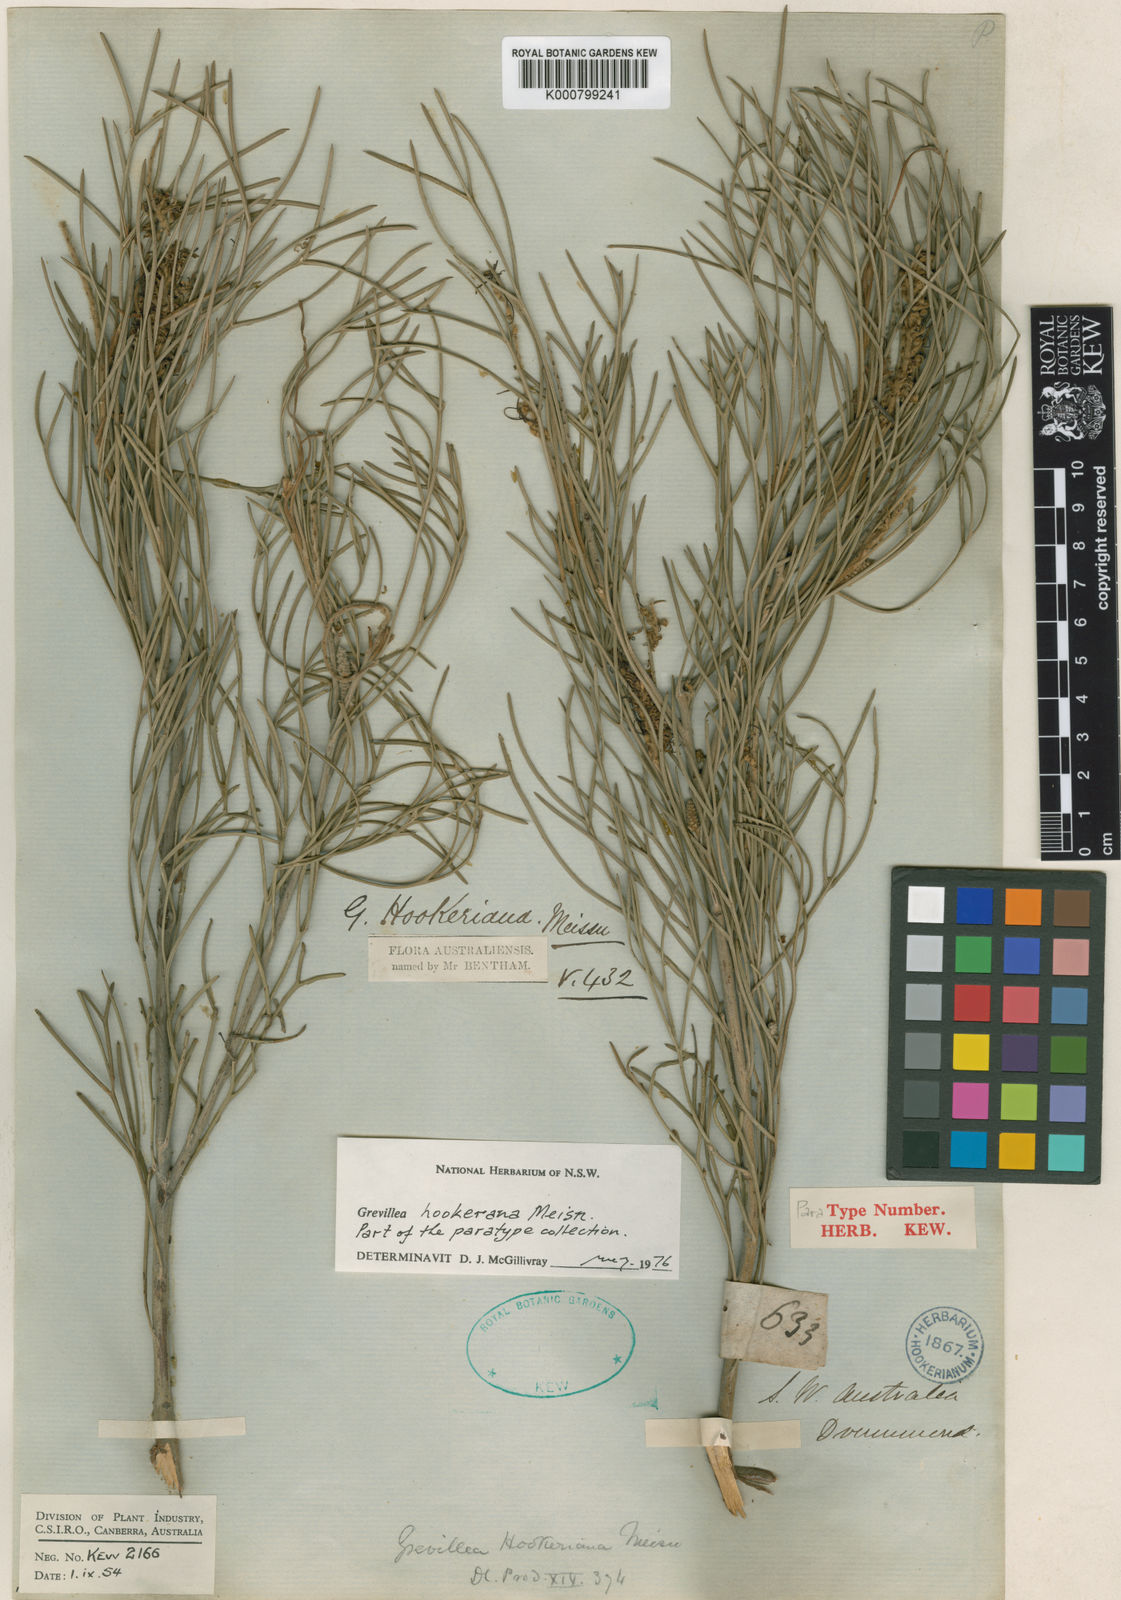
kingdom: Plantae
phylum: Tracheophyta
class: Magnoliopsida
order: Proteales
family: Proteaceae
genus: Grevillea
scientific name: Grevillea hookeriana
